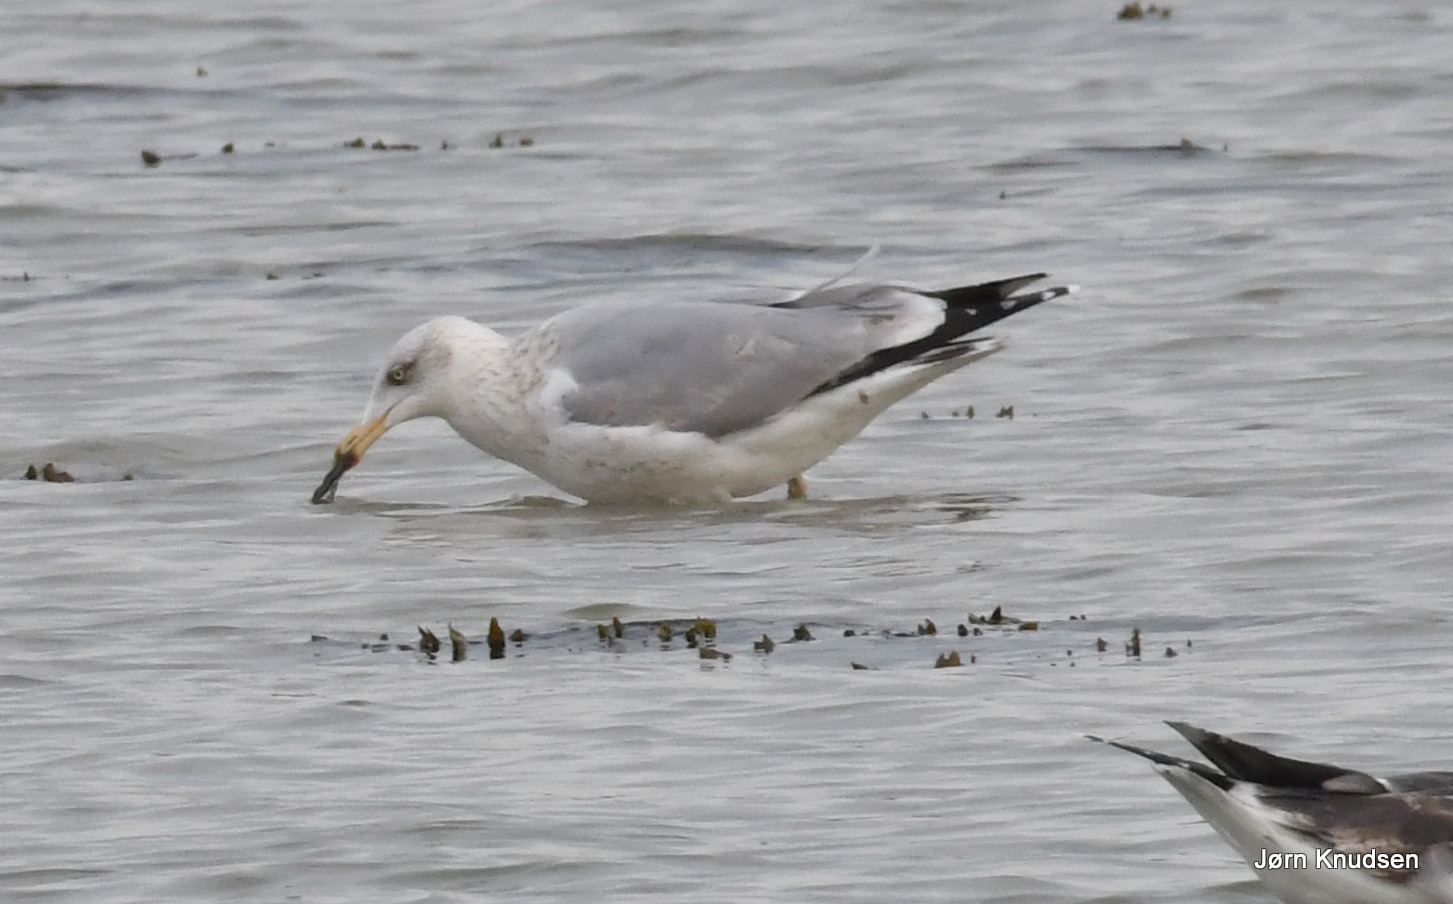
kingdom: Animalia
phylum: Chordata
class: Aves
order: Charadriiformes
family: Laridae
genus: Larus
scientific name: Larus argentatus
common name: Sølvmåge
